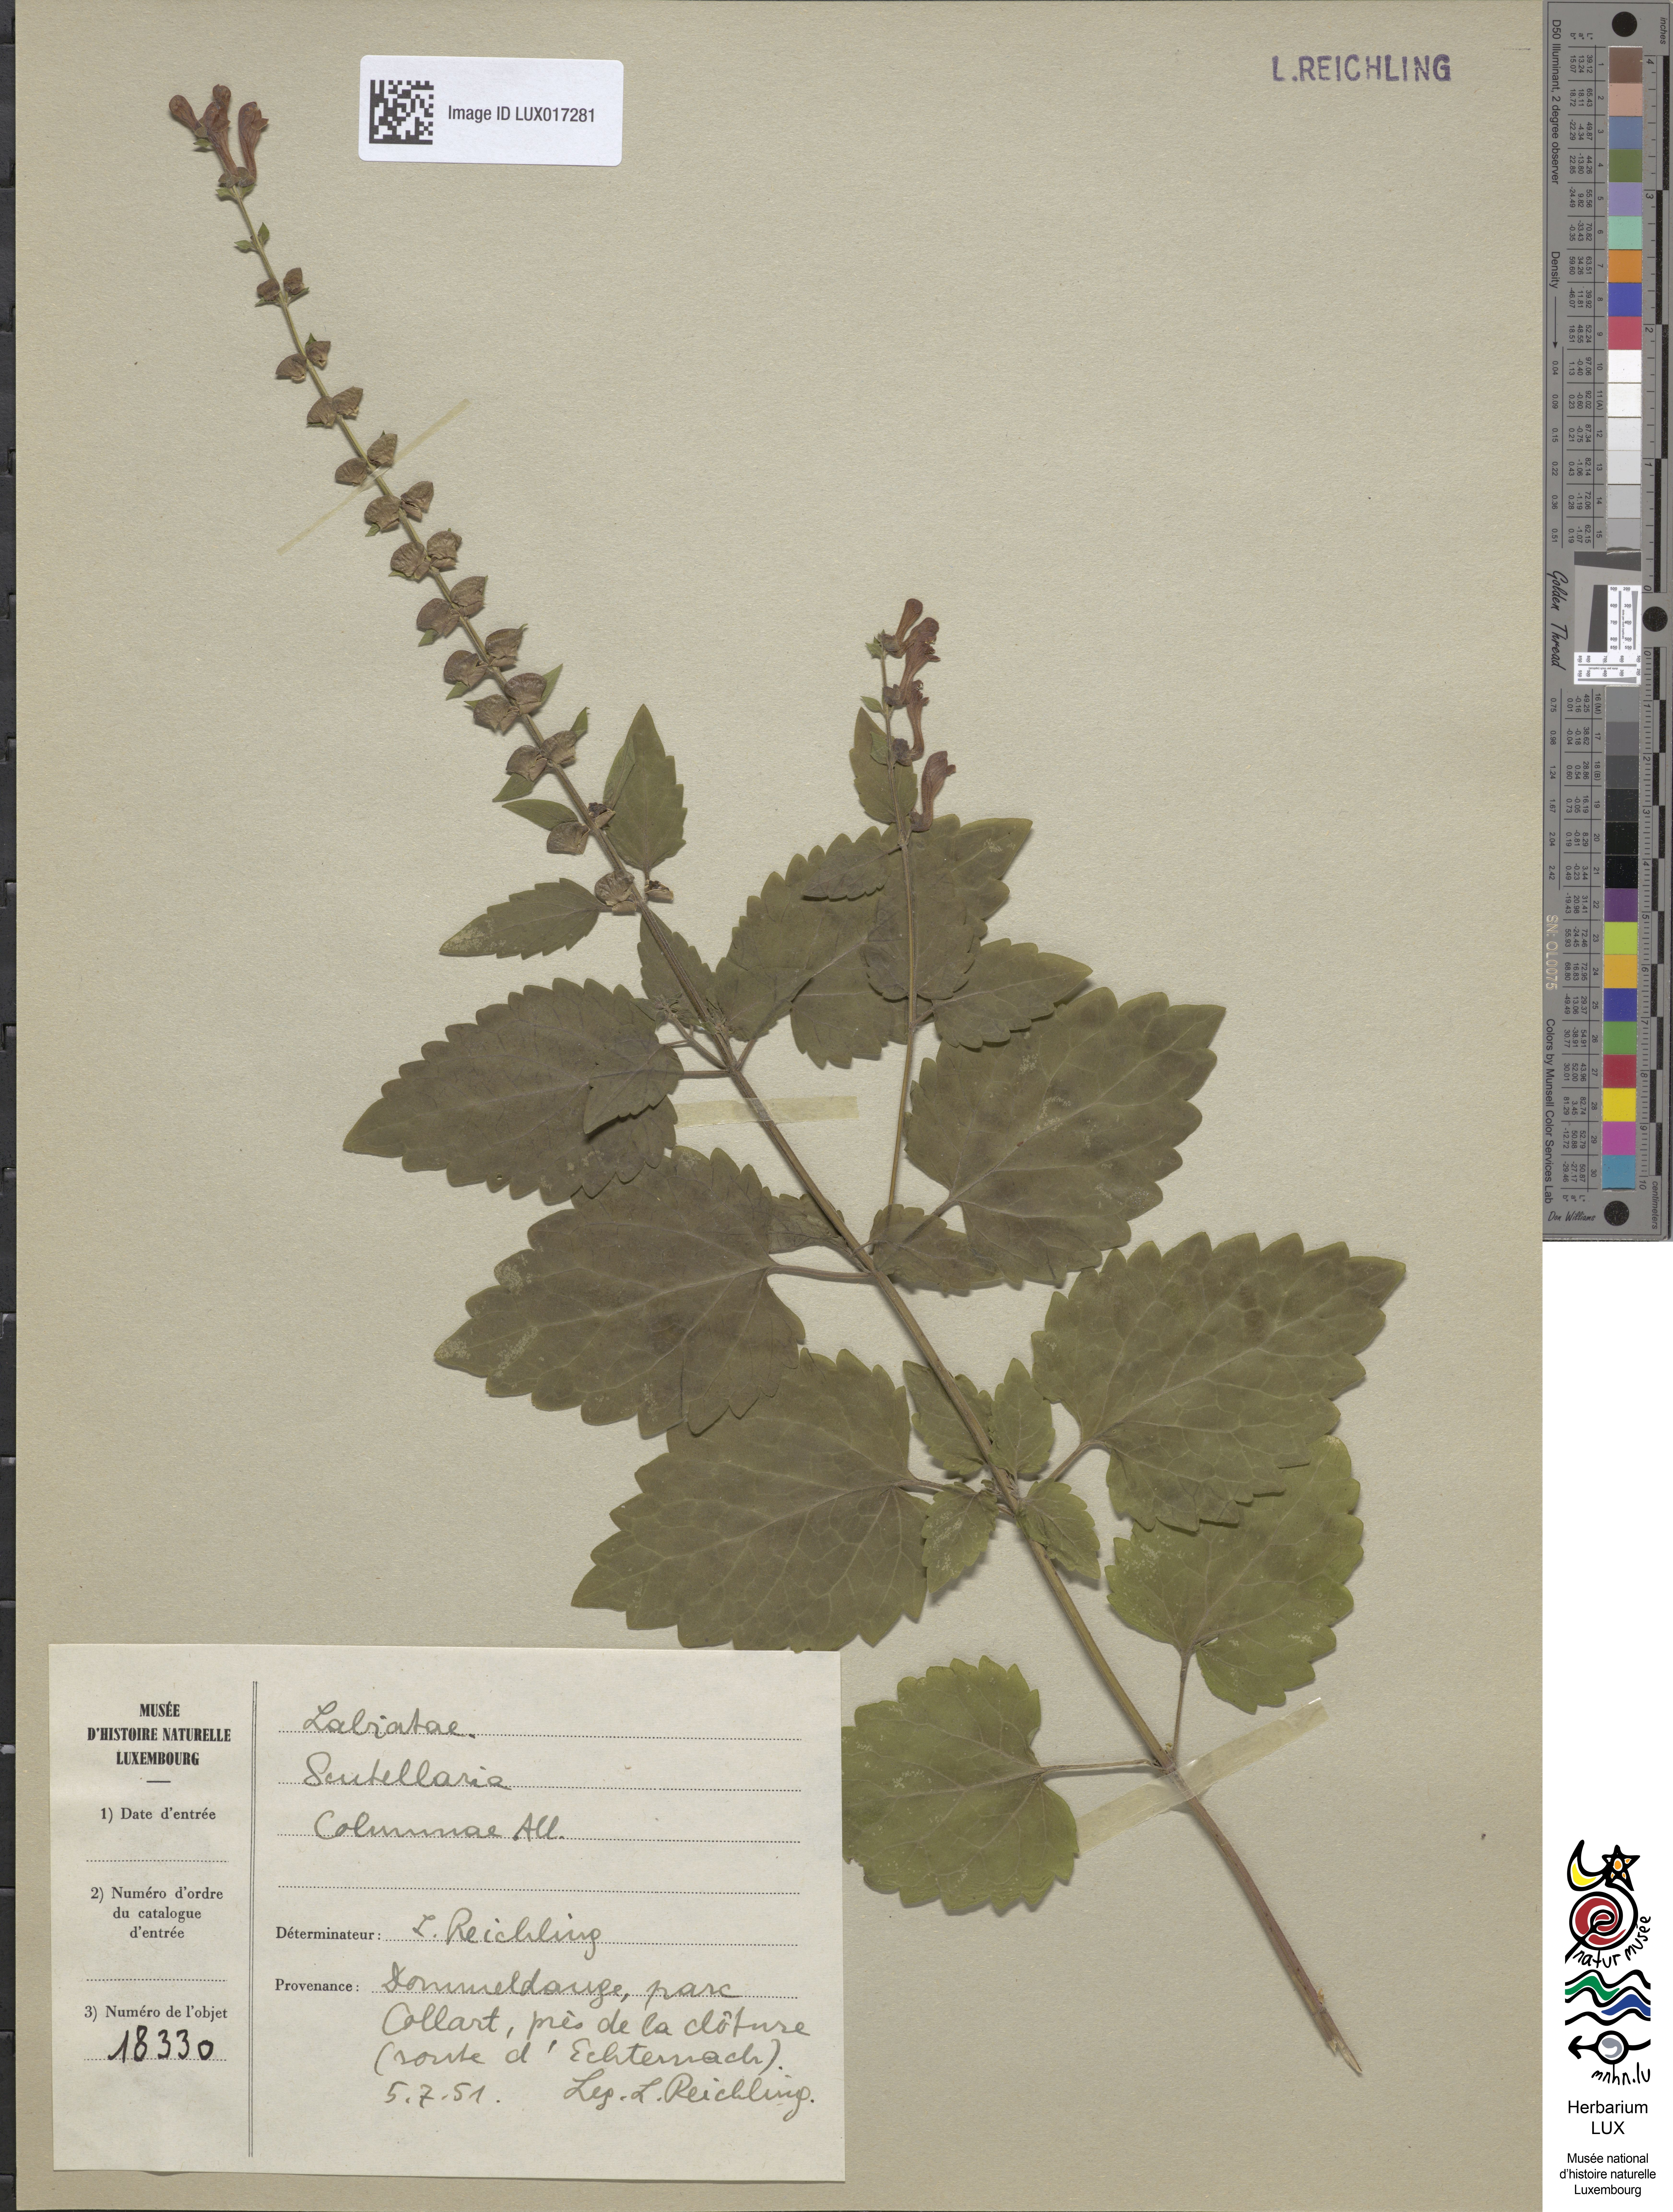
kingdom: Plantae
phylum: Tracheophyta
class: Magnoliopsida
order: Lamiales
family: Lamiaceae
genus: Scutellaria
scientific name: Scutellaria columnae
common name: Large skullcap
